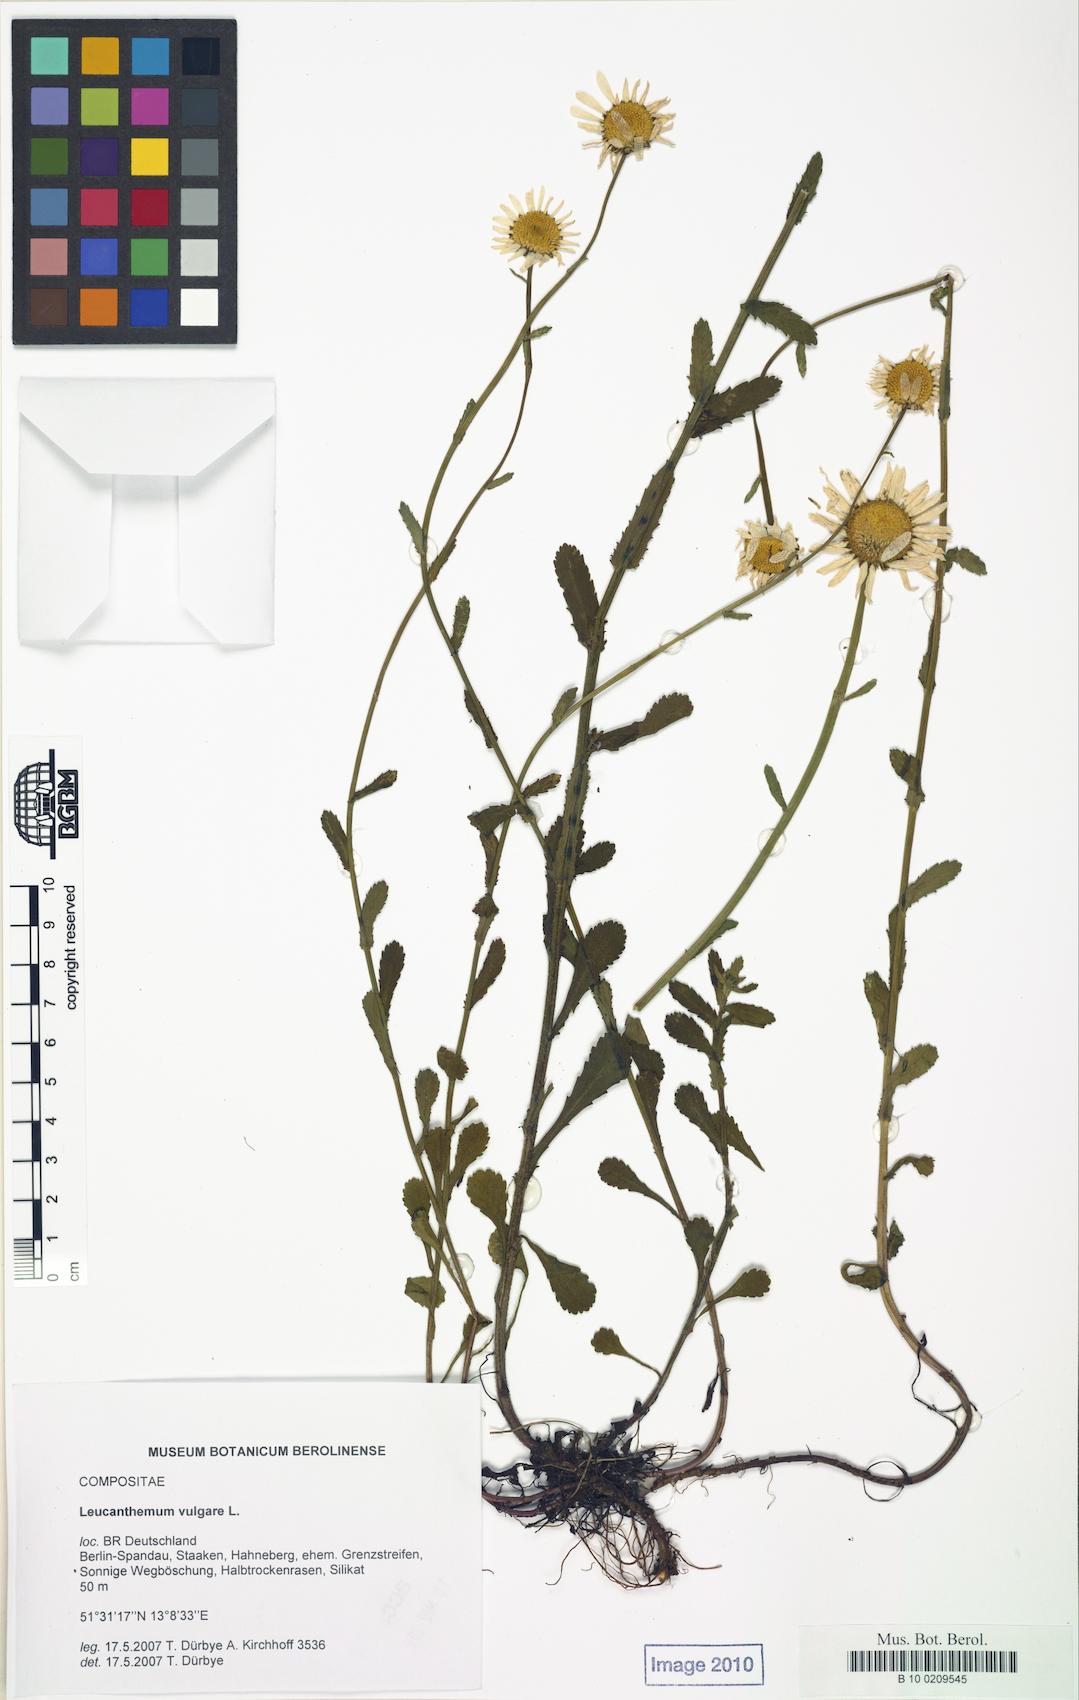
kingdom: Plantae
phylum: Tracheophyta
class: Magnoliopsida
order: Asterales
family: Asteraceae
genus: Leucanthemum
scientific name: Leucanthemum ircutianum
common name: Daisy
